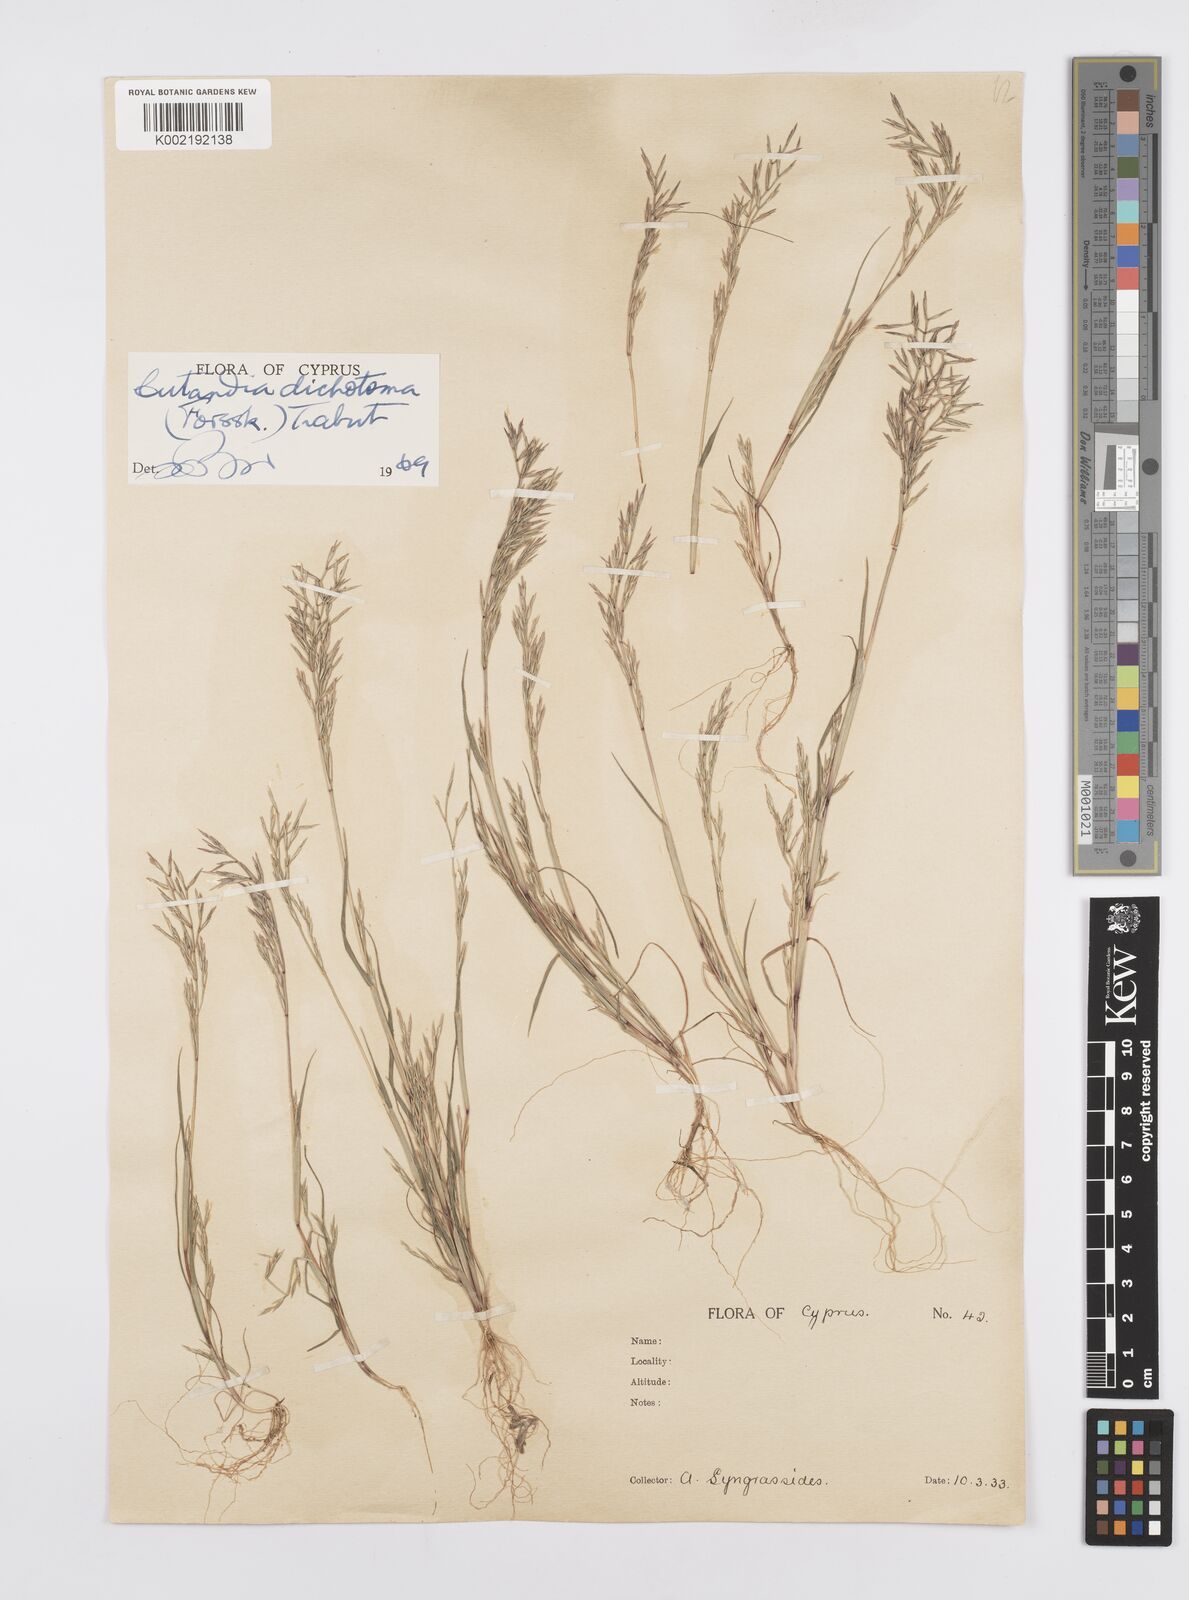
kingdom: Plantae
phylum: Tracheophyta
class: Liliopsida
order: Poales
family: Poaceae
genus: Cutandia
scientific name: Cutandia dichotoma
